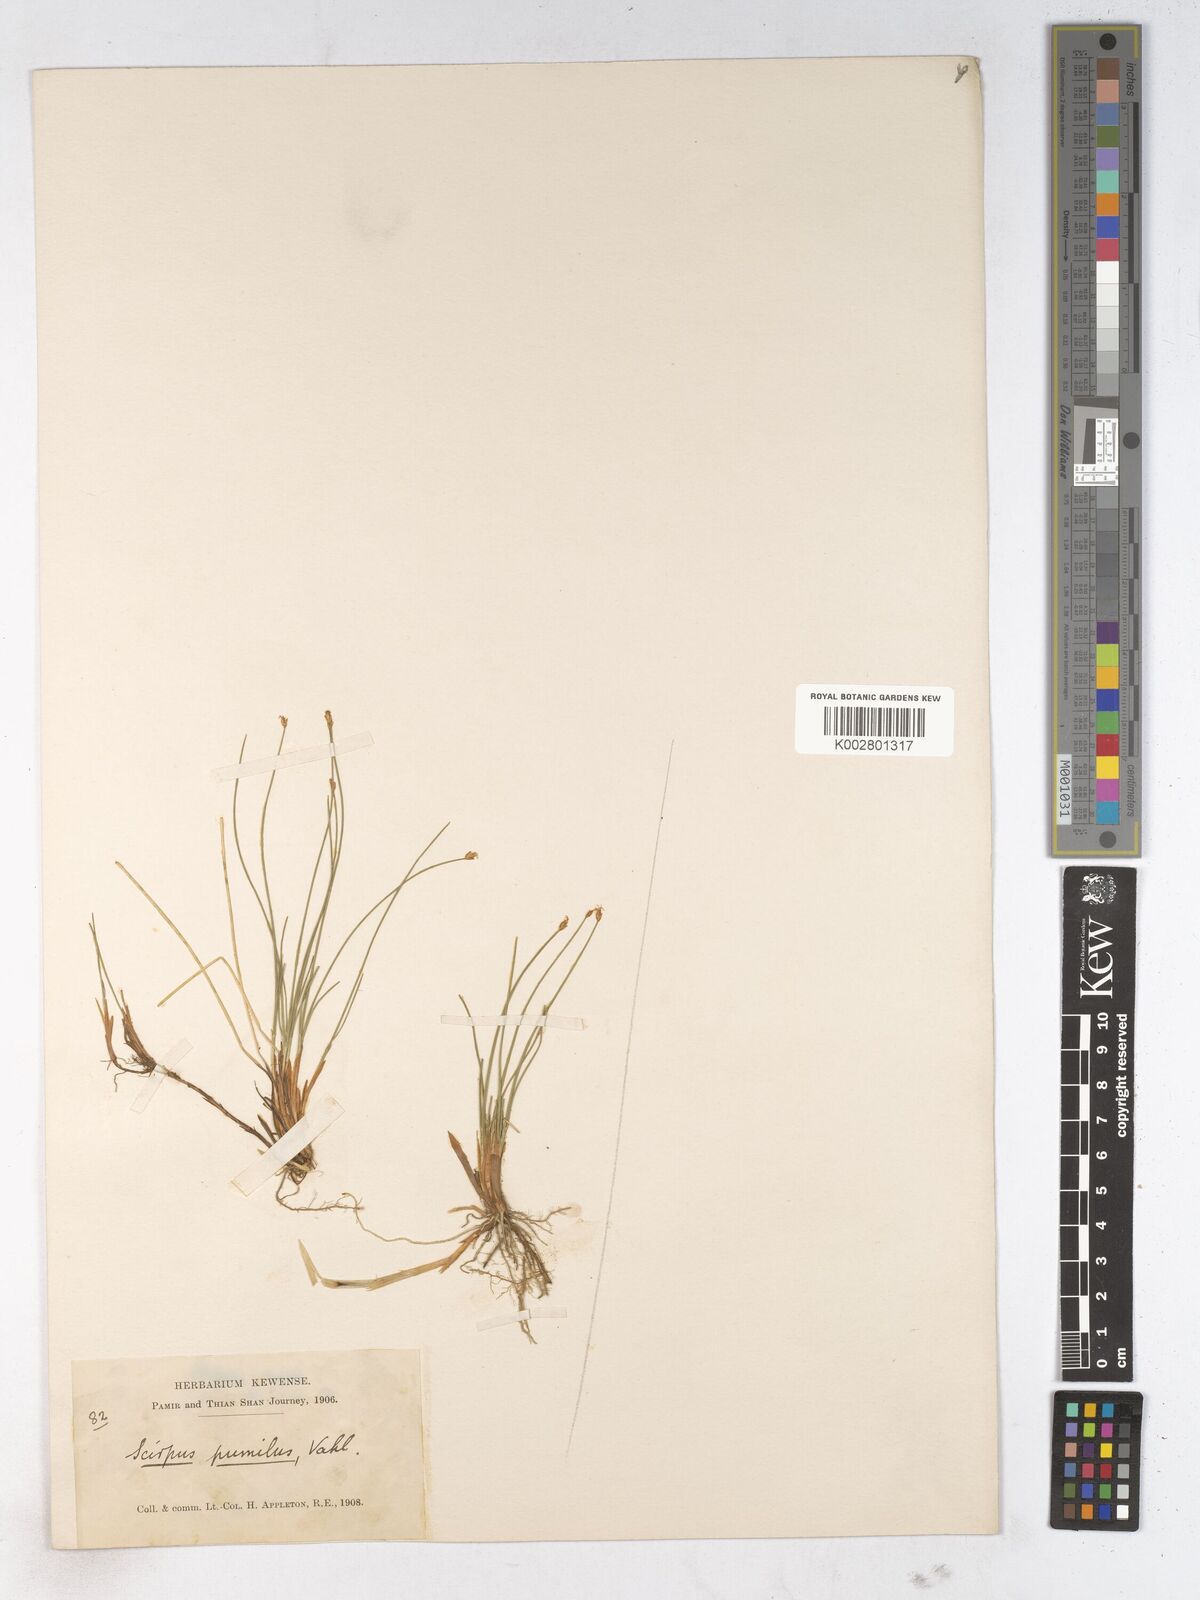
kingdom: Plantae
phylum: Tracheophyta
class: Liliopsida
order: Poales
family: Cyperaceae
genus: Trichophorum
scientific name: Trichophorum pumilum
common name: Rolland's bulrush
